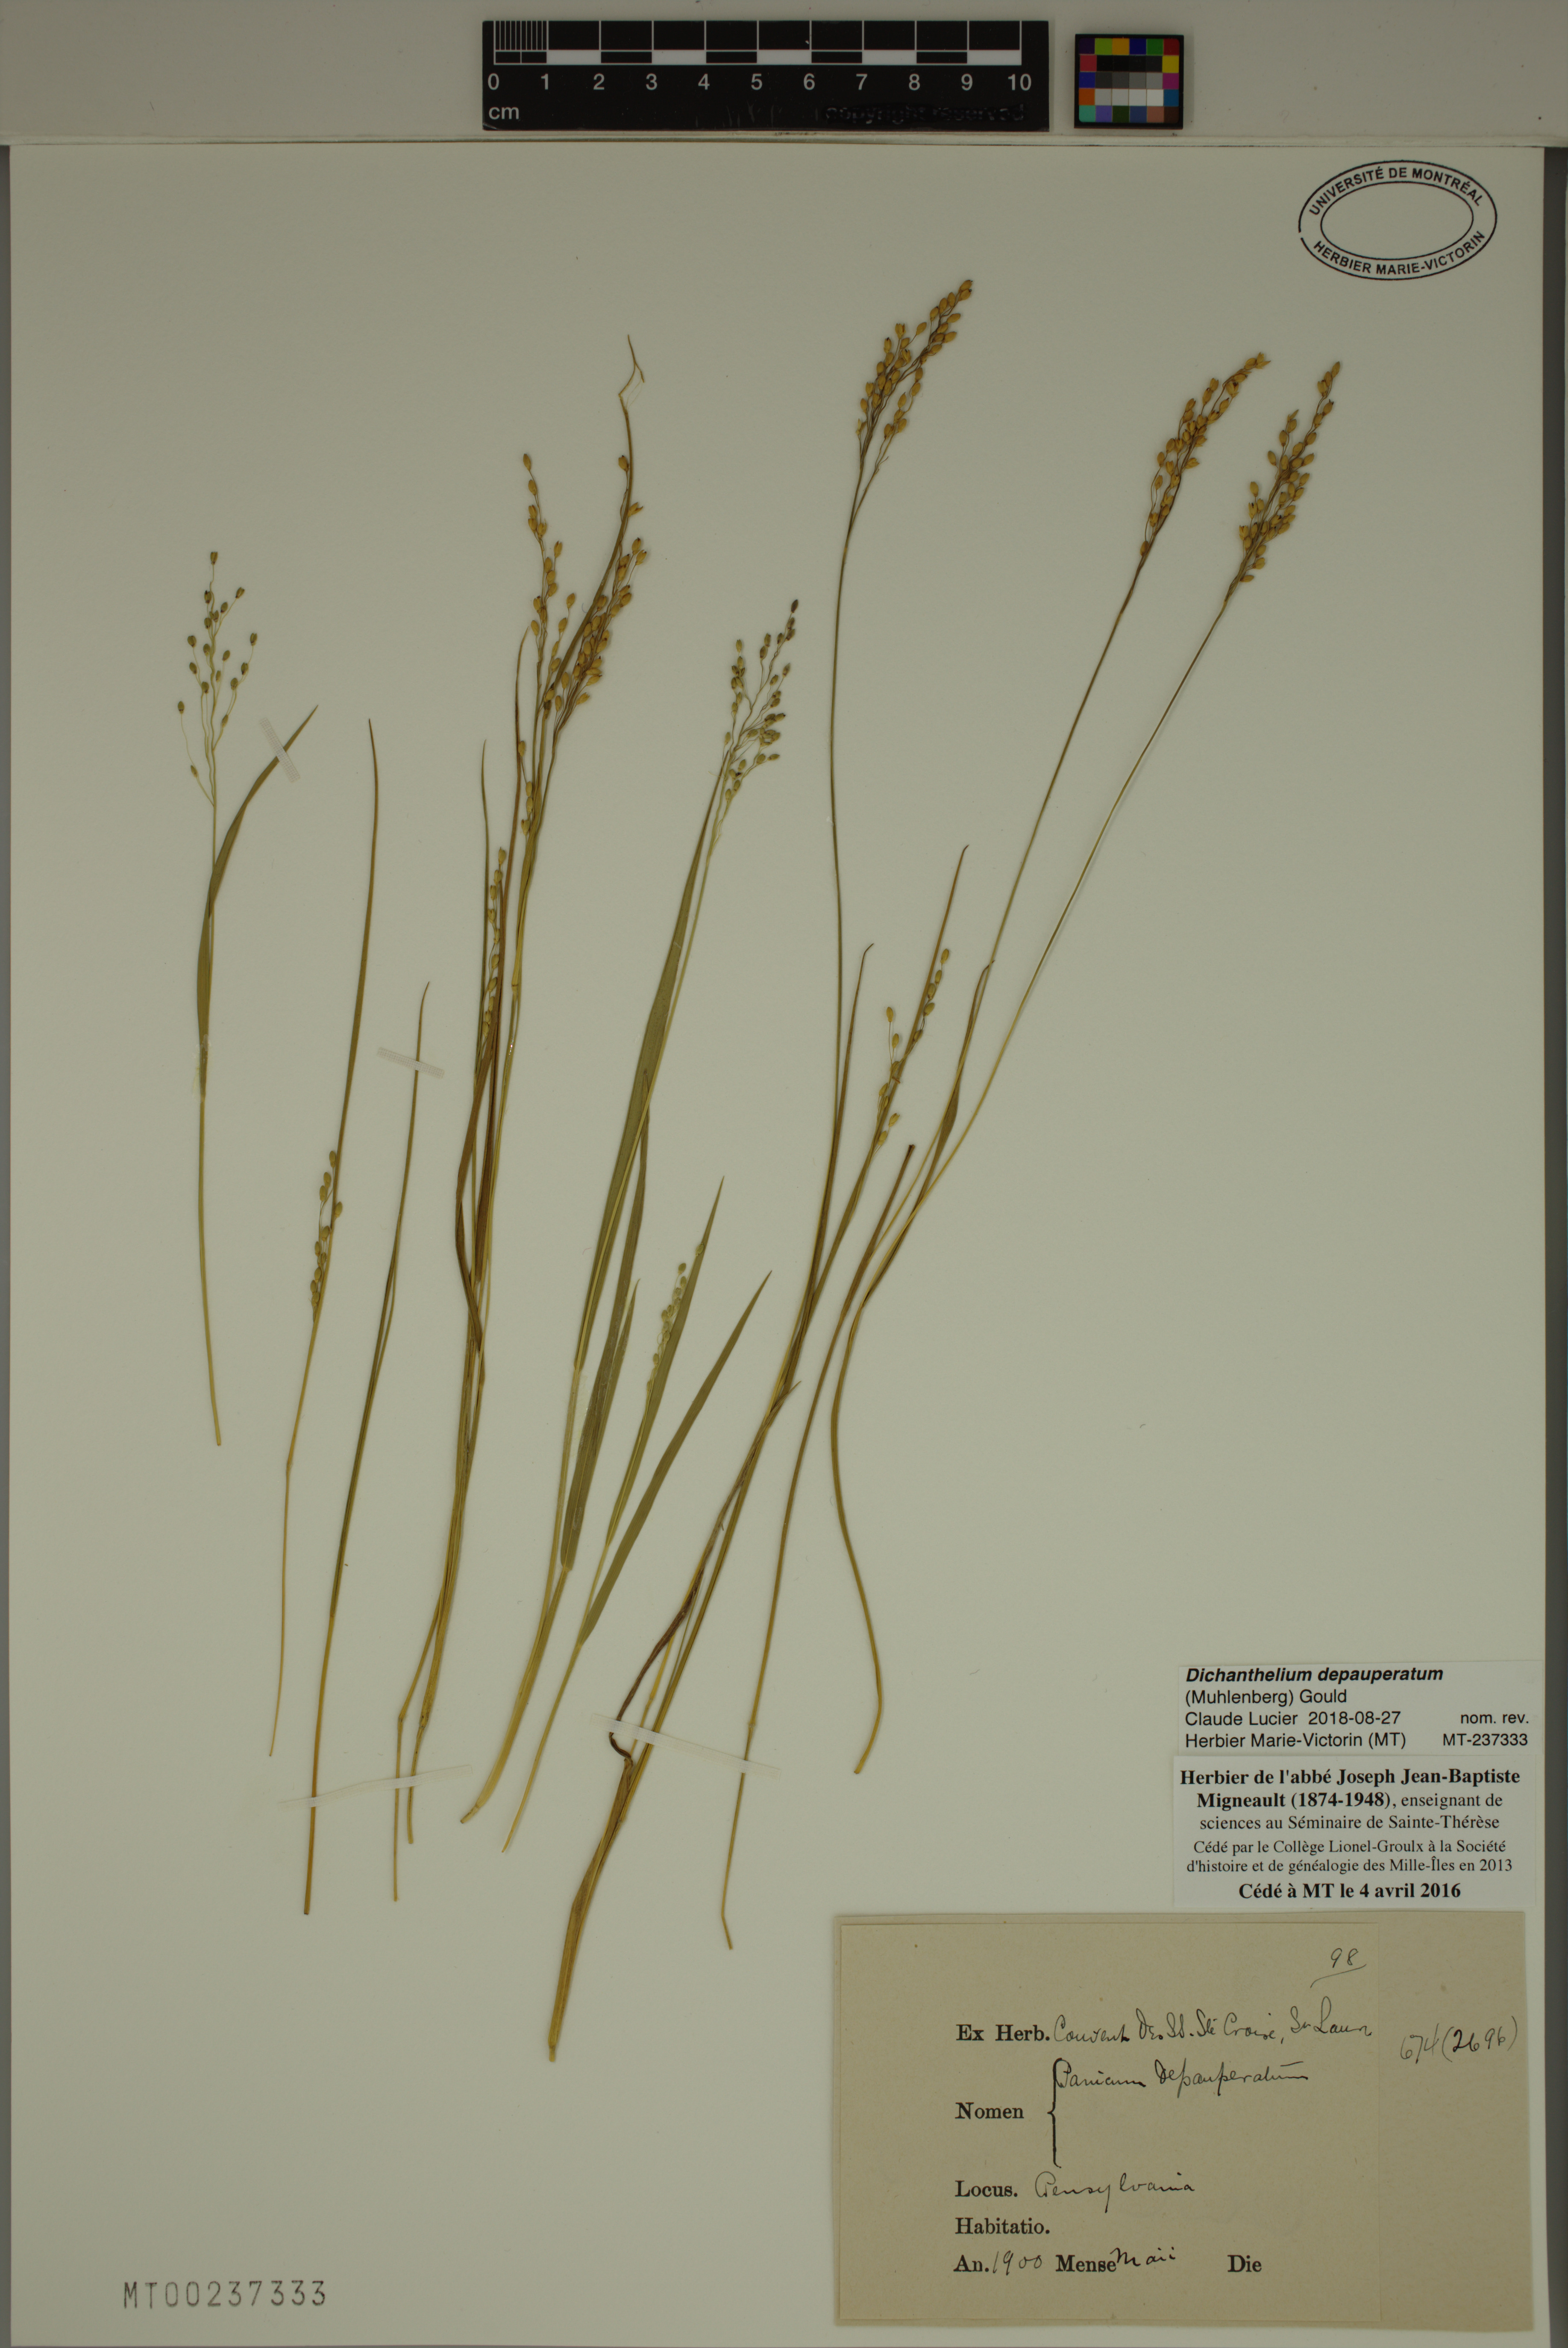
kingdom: Plantae
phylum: Tracheophyta
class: Liliopsida
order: Poales
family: Poaceae
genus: Dichanthelium
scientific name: Dichanthelium depauperatum
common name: Depauperate panicgrass
